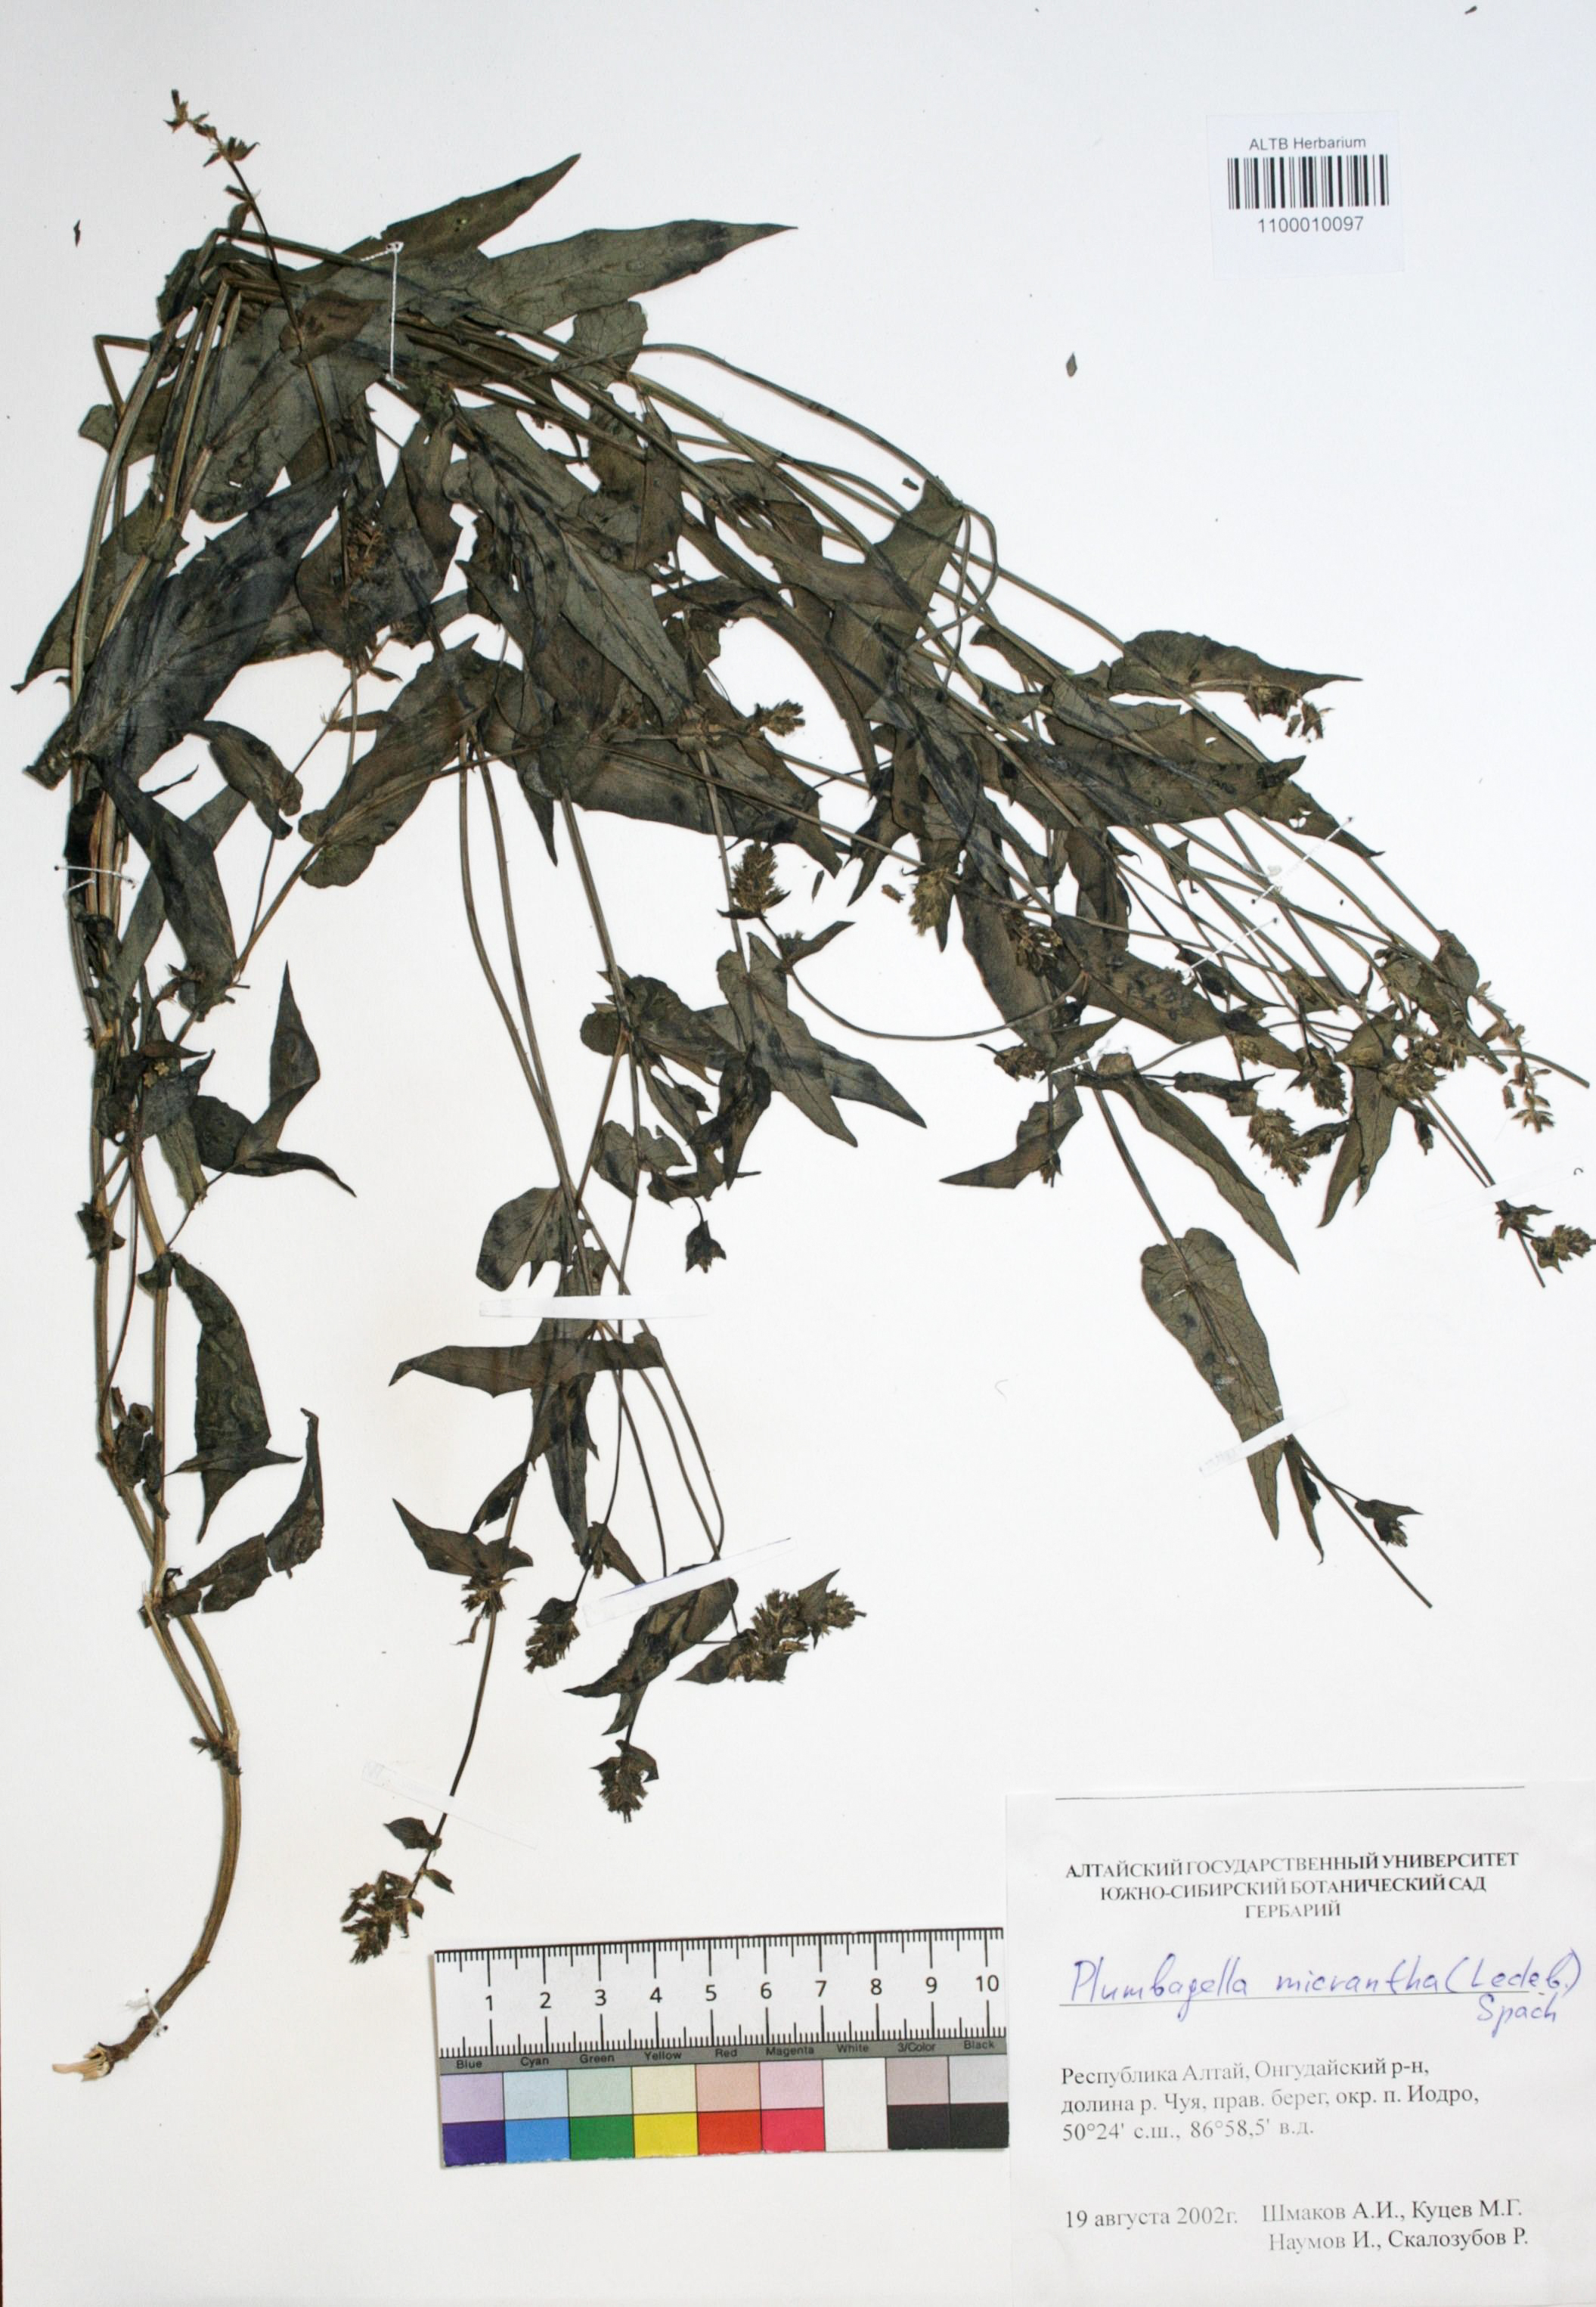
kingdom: Plantae
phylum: Tracheophyta
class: Magnoliopsida
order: Caryophyllales
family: Plumbaginaceae
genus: Plumbagella
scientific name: Plumbagella micrantha
